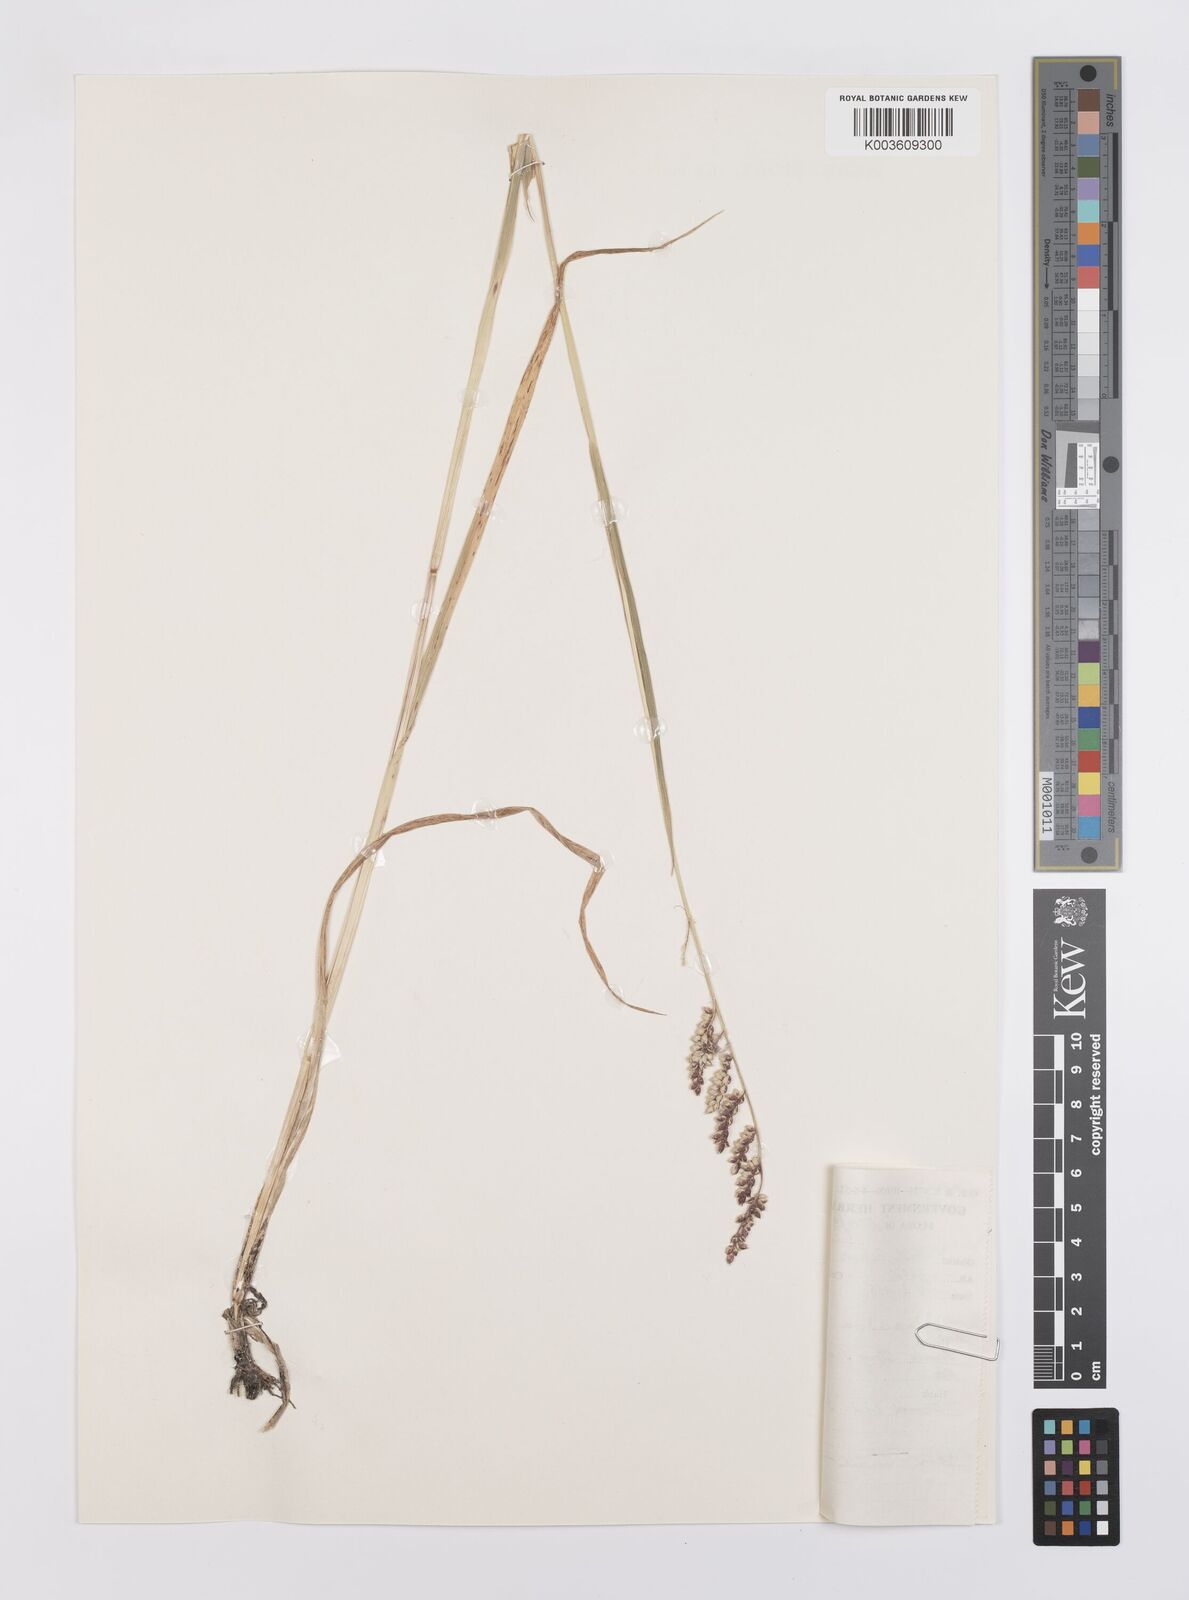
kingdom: Plantae
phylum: Tracheophyta
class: Liliopsida
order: Poales
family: Poaceae
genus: Echinochloa
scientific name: Echinochloa colonum
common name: Jungle rice
